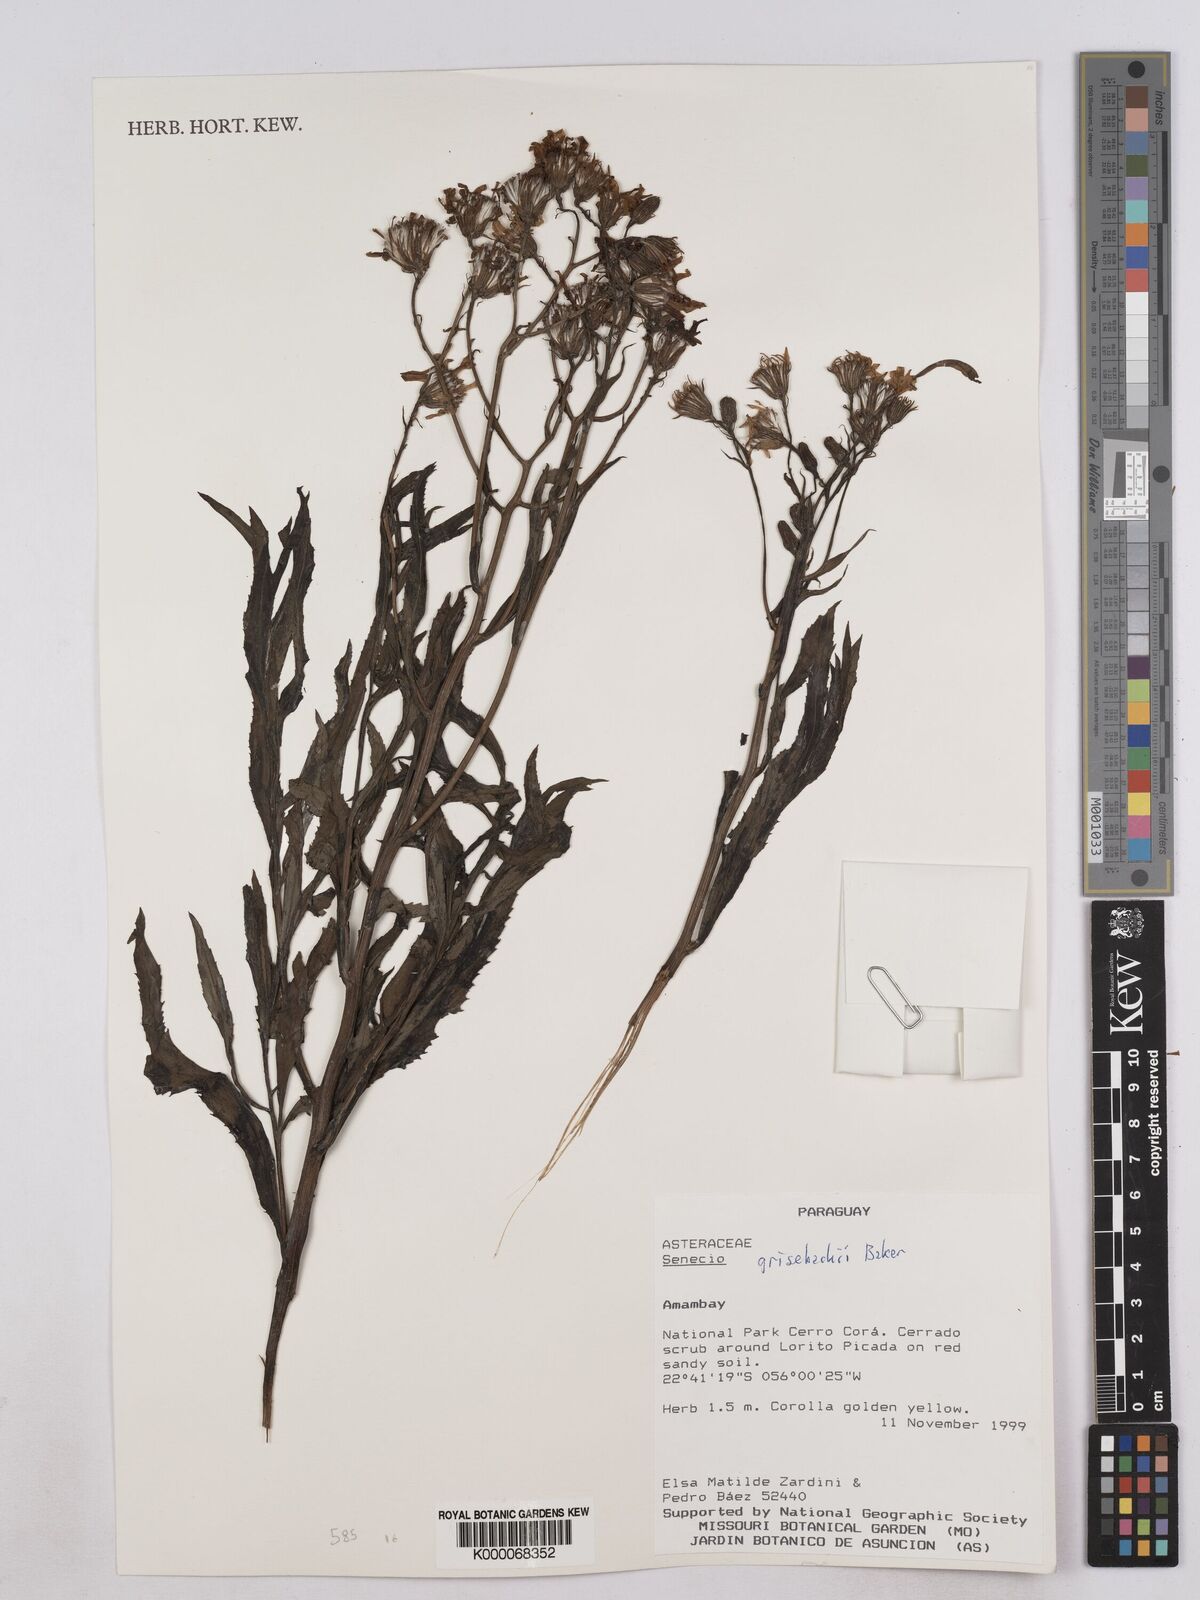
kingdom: Plantae
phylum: Tracheophyta
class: Magnoliopsida
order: Asterales
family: Asteraceae
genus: Senecio
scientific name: Senecio grisebachii
